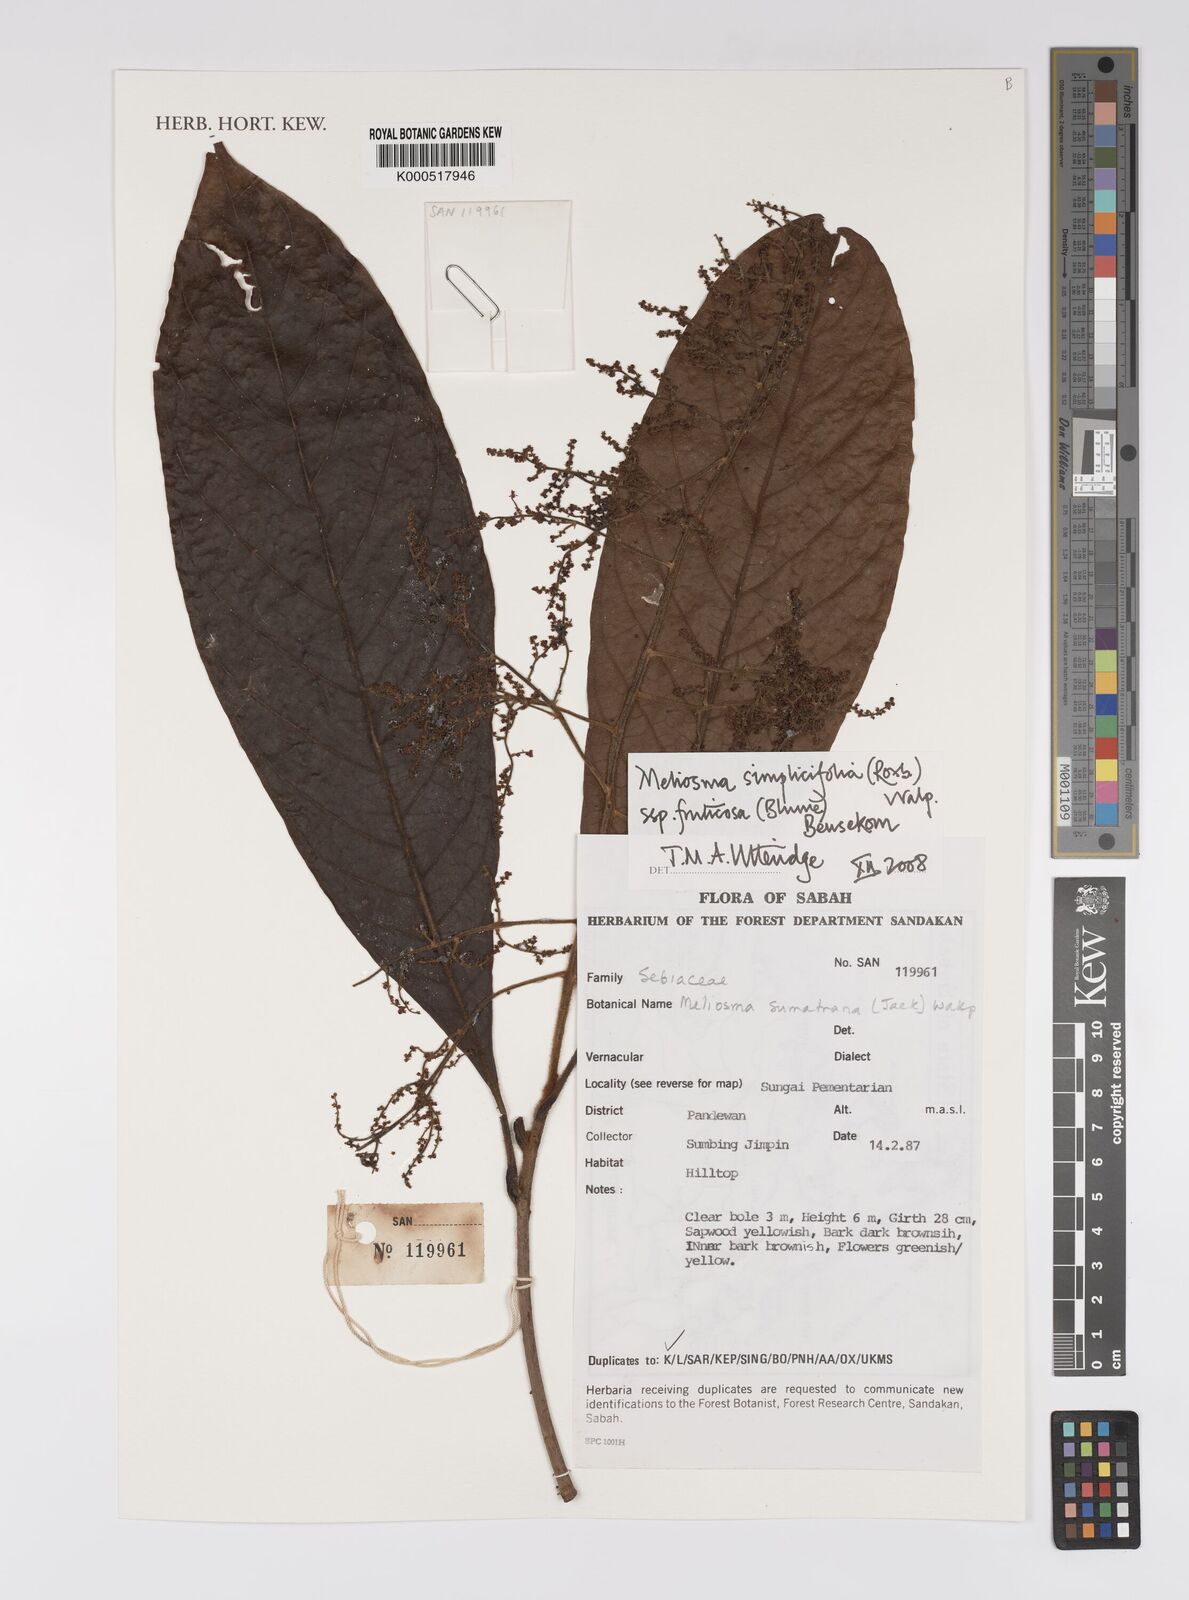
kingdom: Plantae
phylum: Tracheophyta
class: Magnoliopsida
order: Proteales
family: Sabiaceae
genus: Meliosma
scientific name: Meliosma simplicifolia
